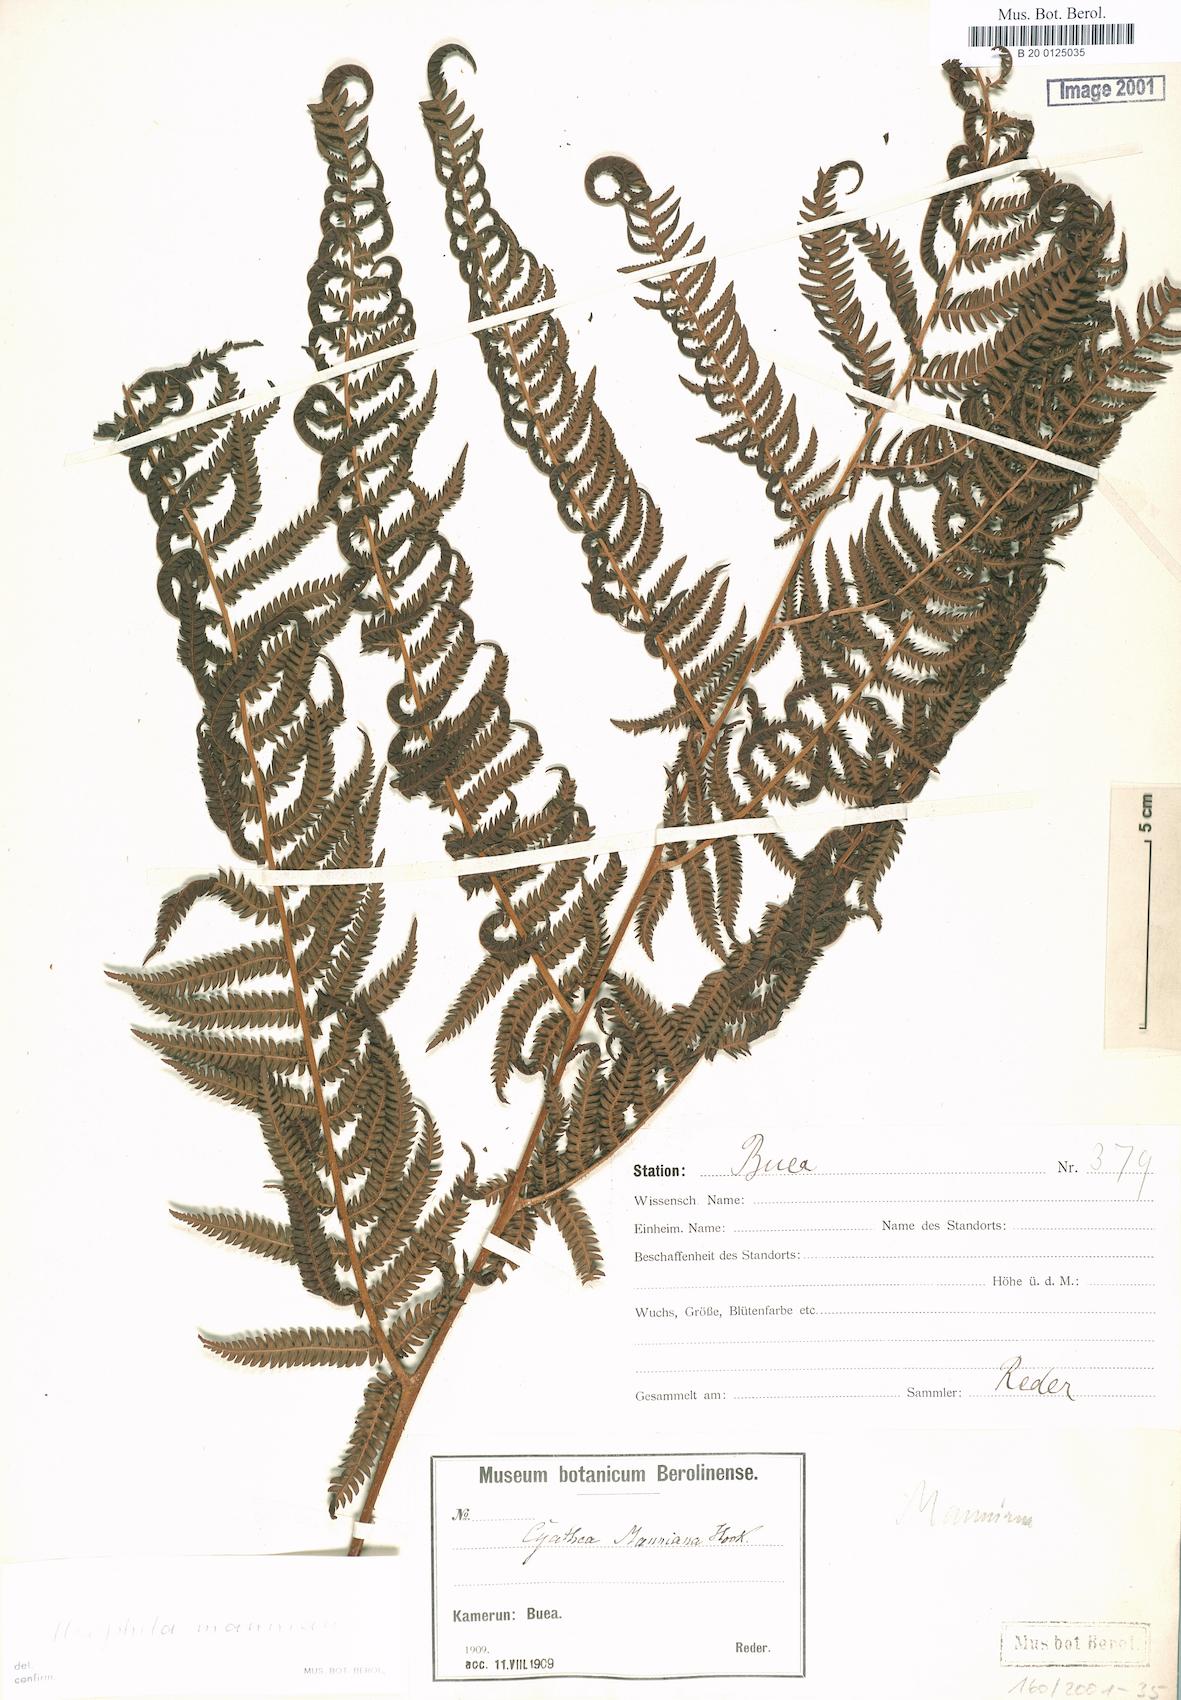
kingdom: Plantae
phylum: Tracheophyta
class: Polypodiopsida
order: Cyatheales
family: Cyatheaceae
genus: Alsophila
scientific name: Alsophila manniana
